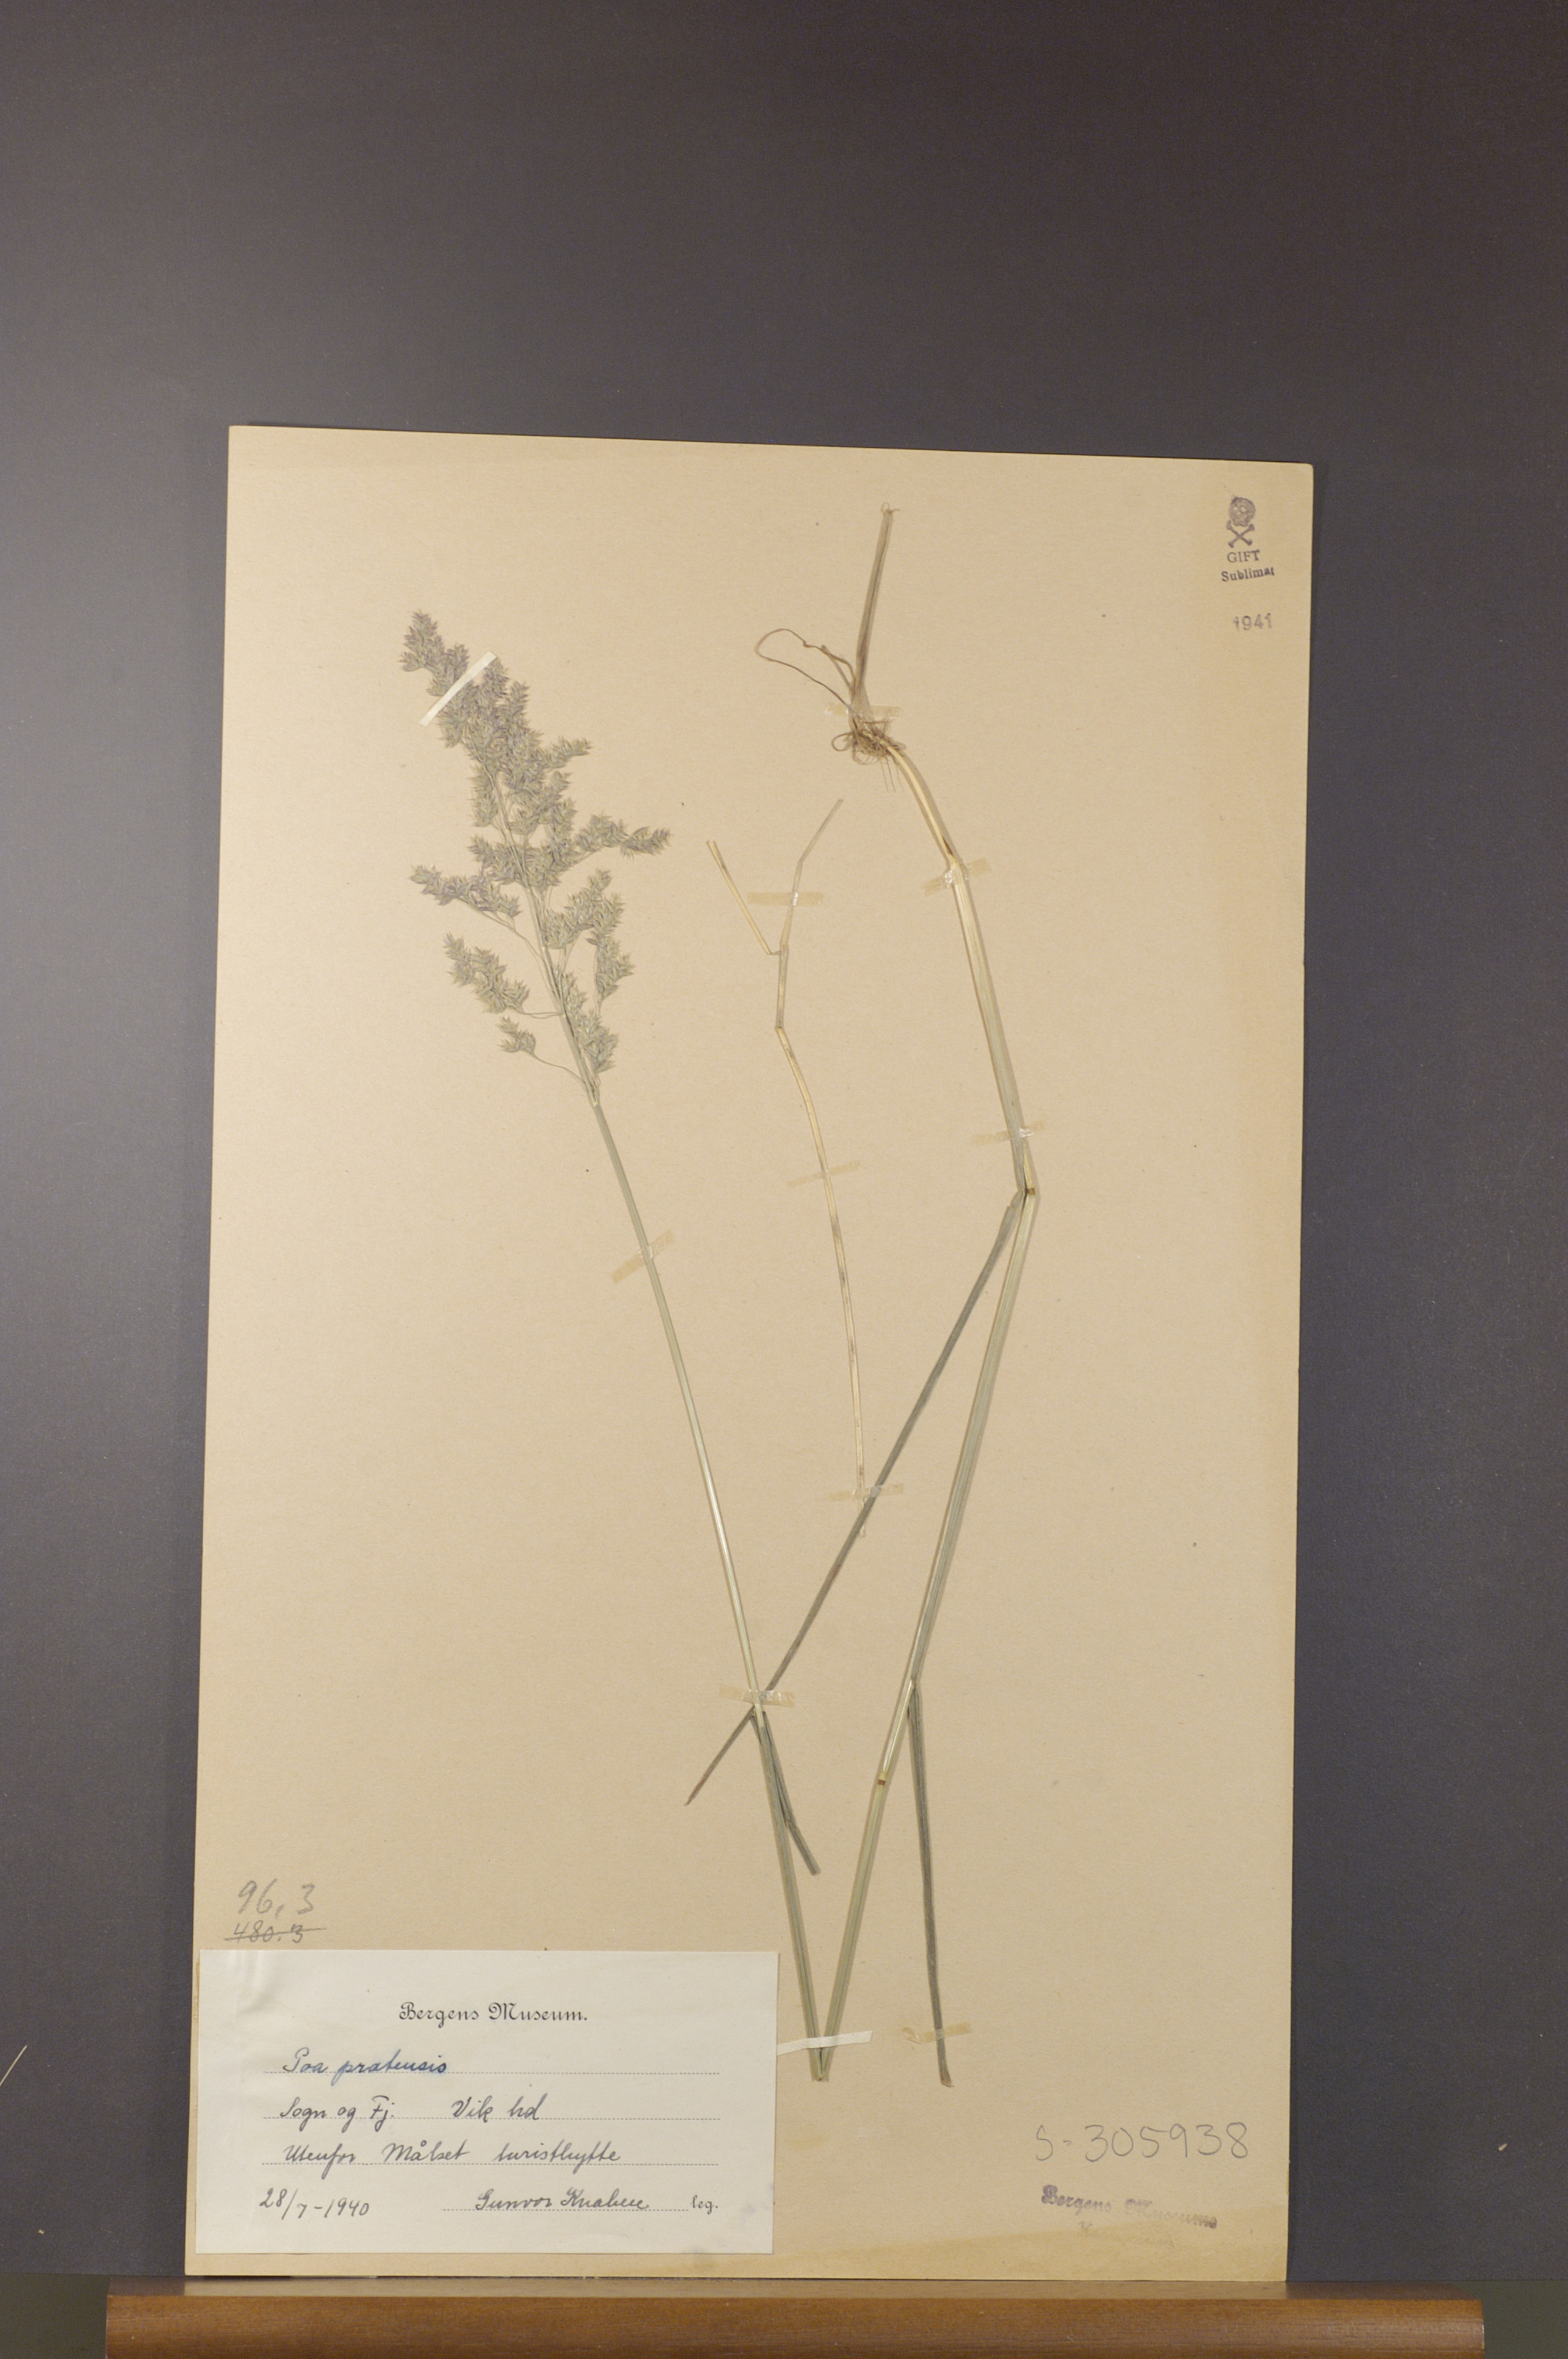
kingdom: Plantae
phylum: Tracheophyta
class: Liliopsida
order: Poales
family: Poaceae
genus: Poa
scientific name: Poa pratensis
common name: Kentucky bluegrass
